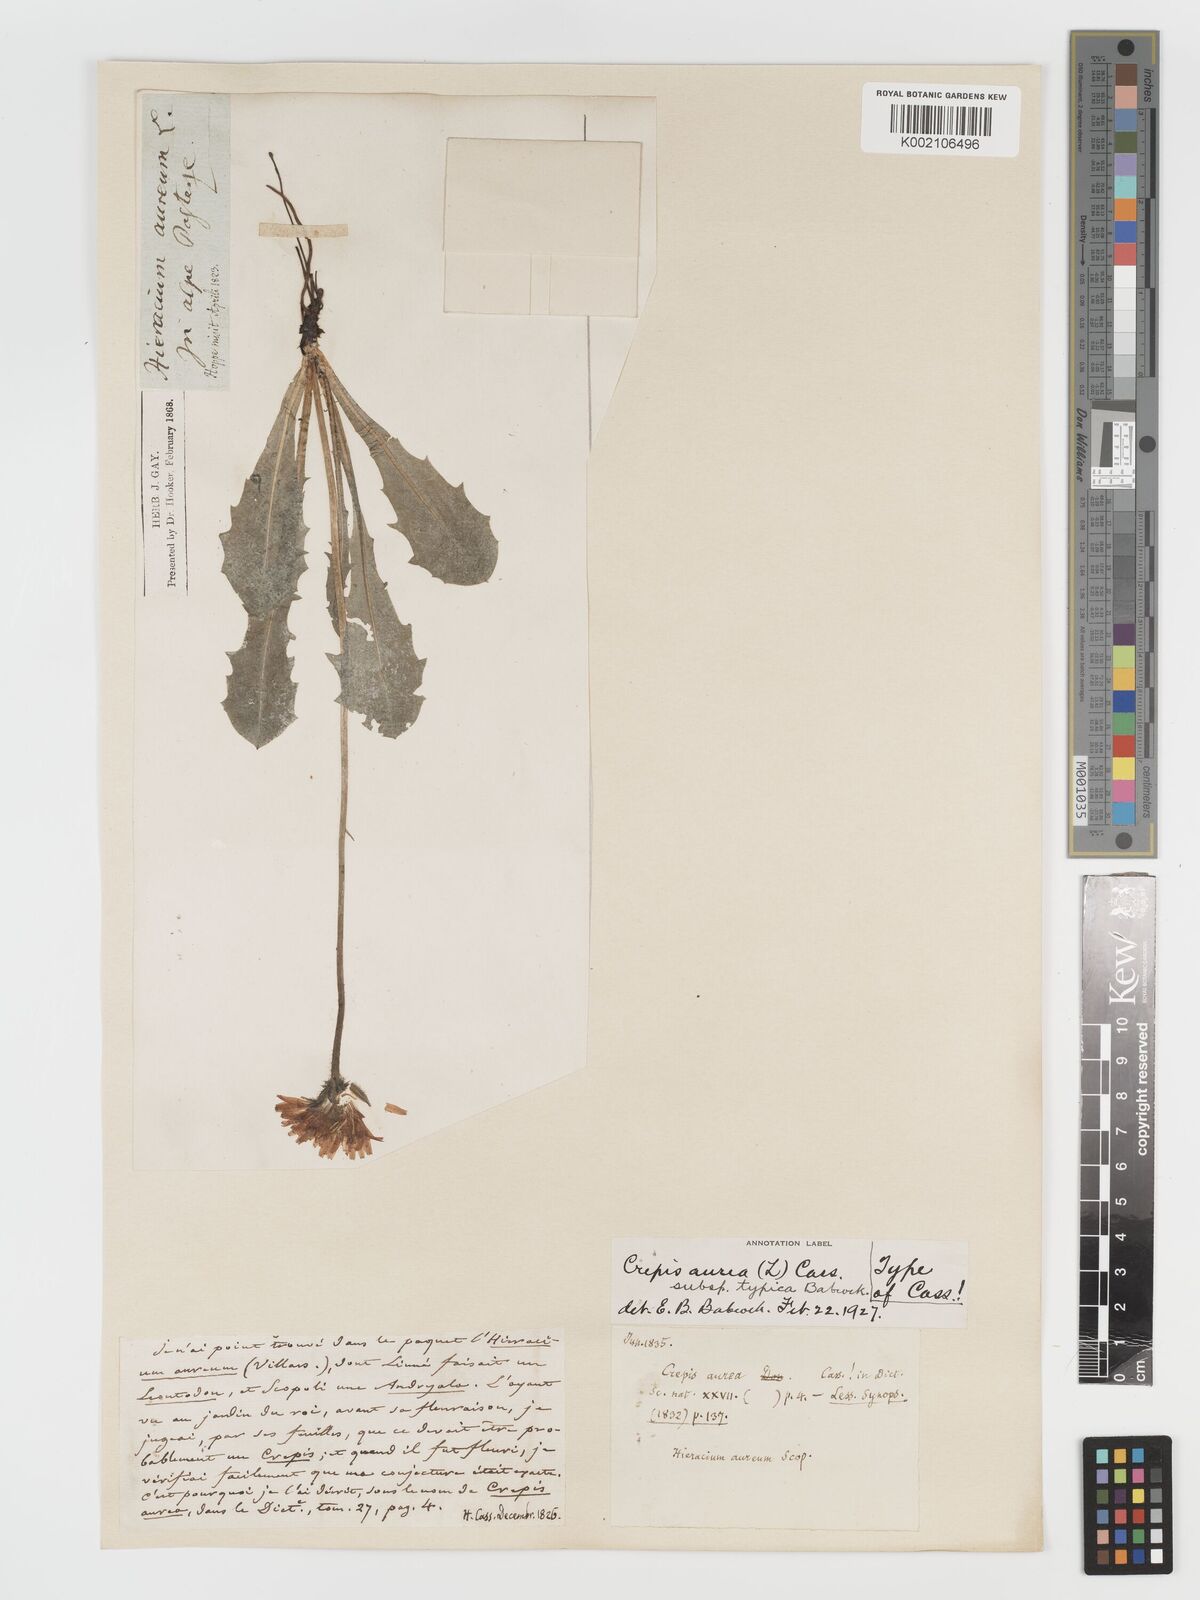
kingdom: Plantae
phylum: Tracheophyta
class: Magnoliopsida
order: Asterales
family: Asteraceae
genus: Crepis
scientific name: Crepis aurea
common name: Golden hawk's-beard
